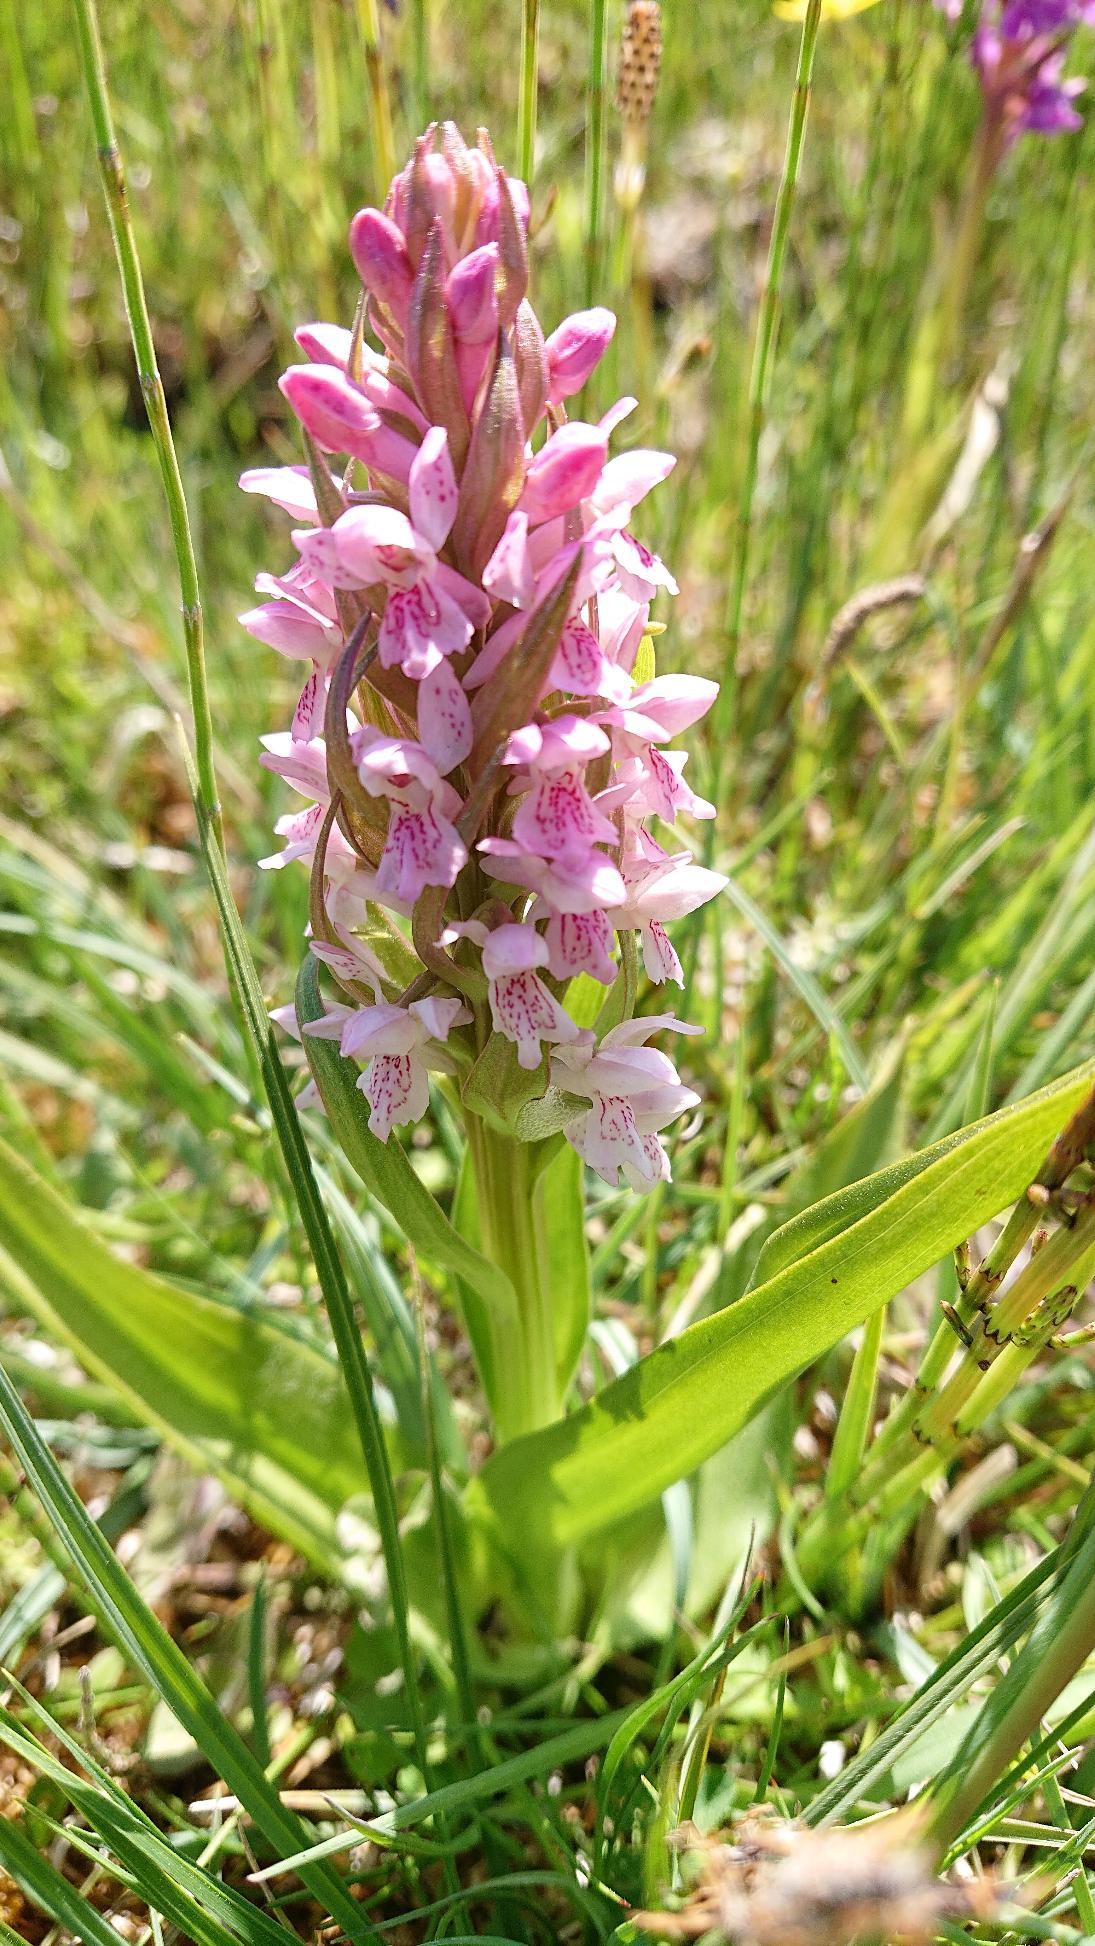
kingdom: Plantae
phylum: Tracheophyta
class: Liliopsida
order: Asparagales
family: Orchidaceae
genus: Dactylorhiza
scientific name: Dactylorhiza incarnata
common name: Kødfarvet gøgeurt
